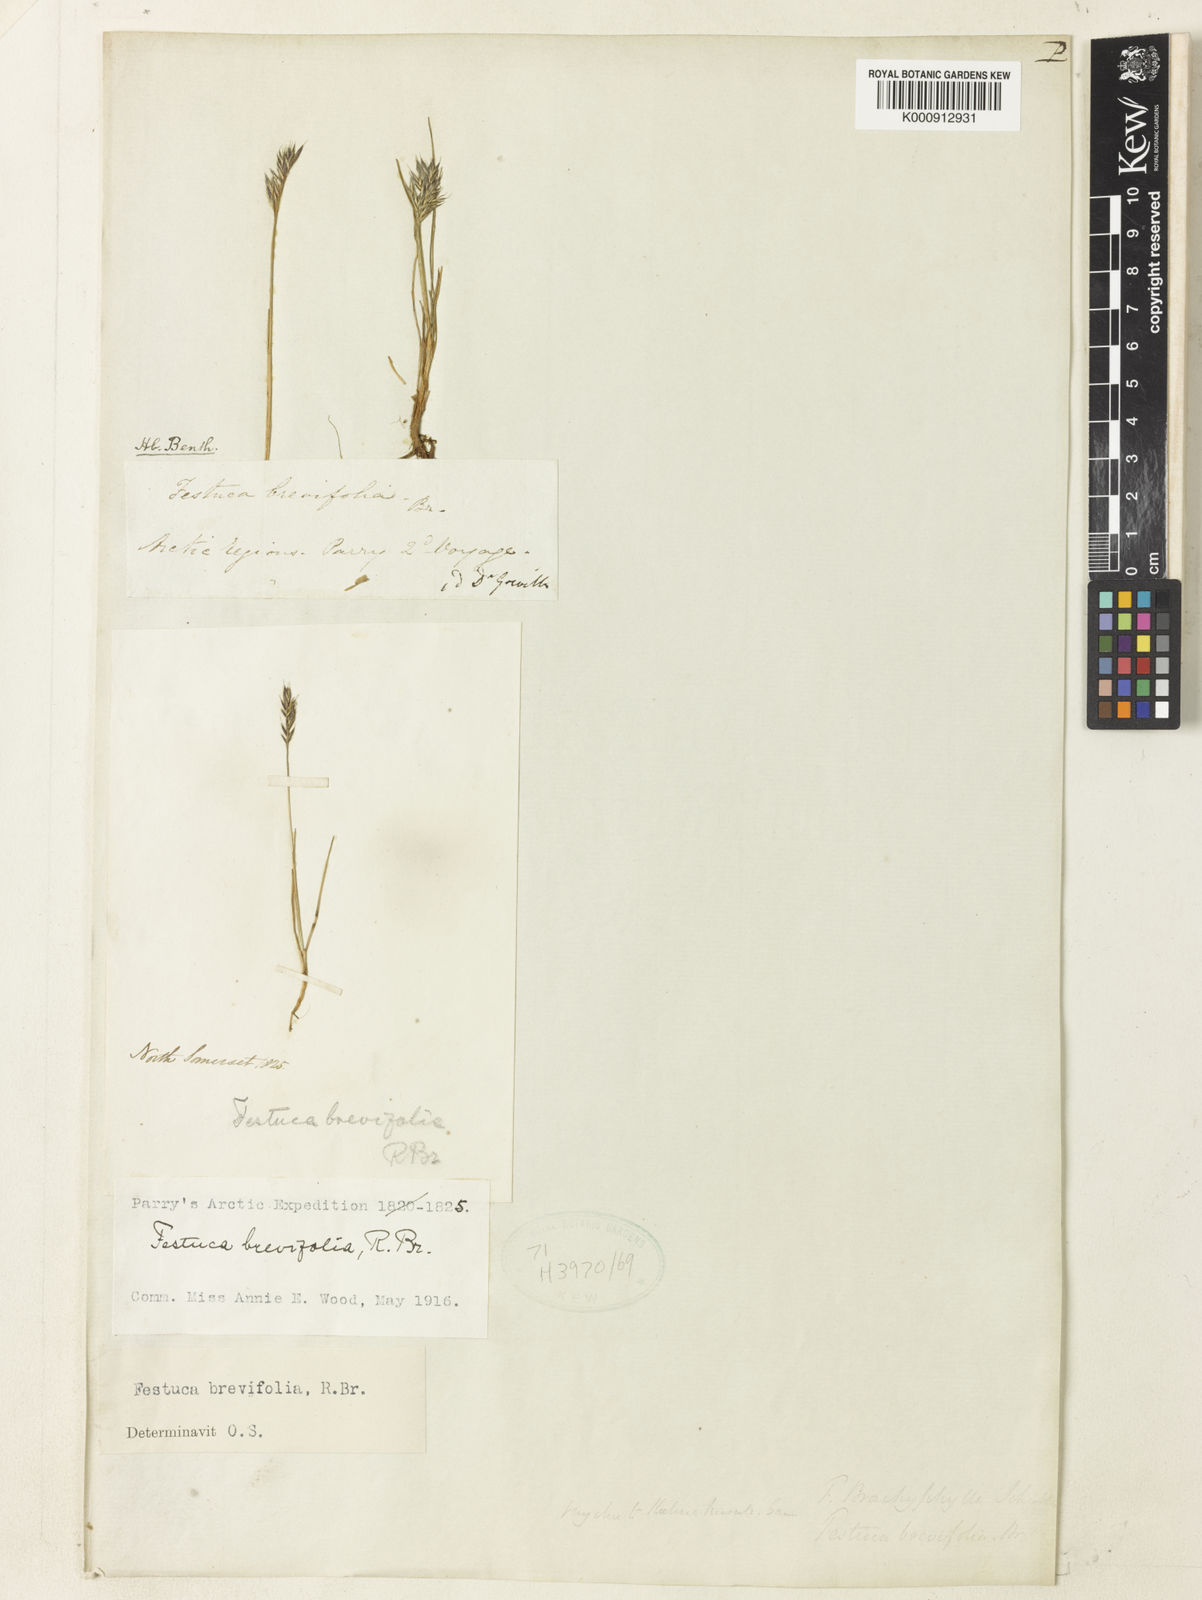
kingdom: Plantae
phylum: Tracheophyta
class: Liliopsida
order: Poales
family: Poaceae
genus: Festuca
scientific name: Festuca brachyphylla
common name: Alpine fescue
